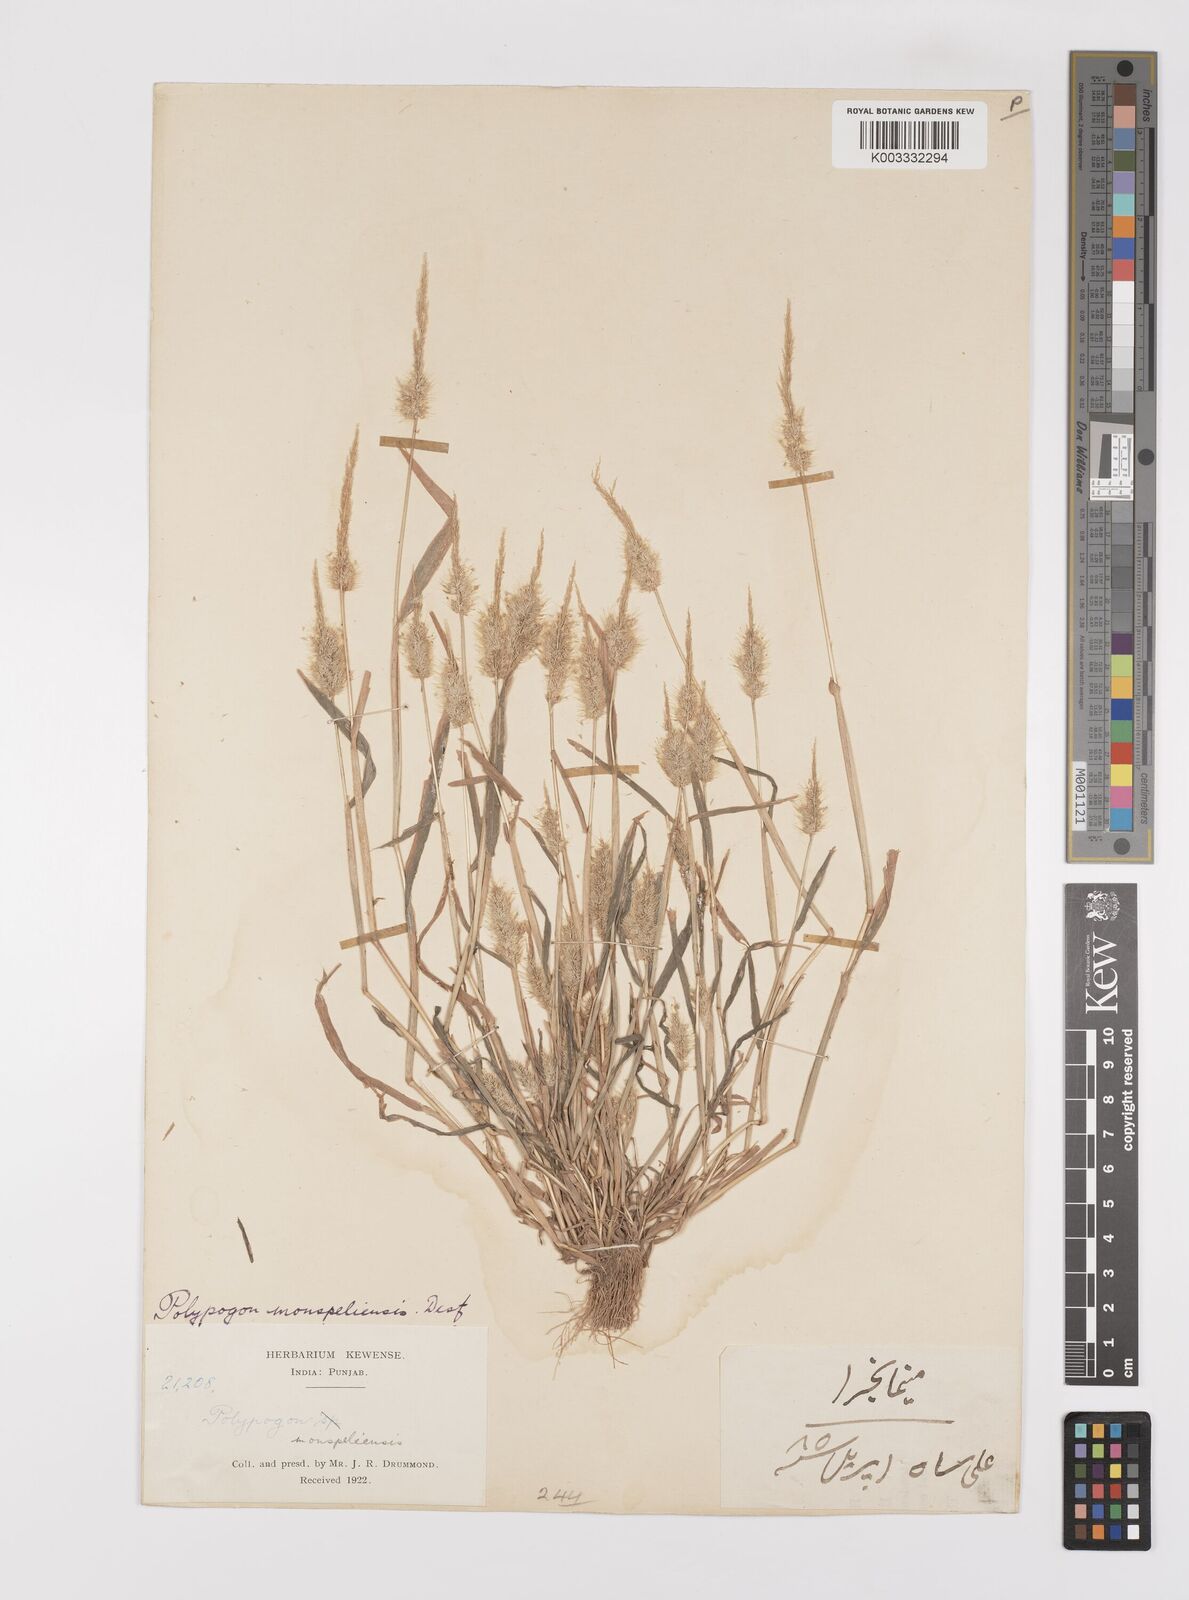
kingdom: Plantae
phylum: Tracheophyta
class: Liliopsida
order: Poales
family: Poaceae
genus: Polypogon
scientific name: Polypogon monspeliensis
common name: Annual rabbitsfoot grass
